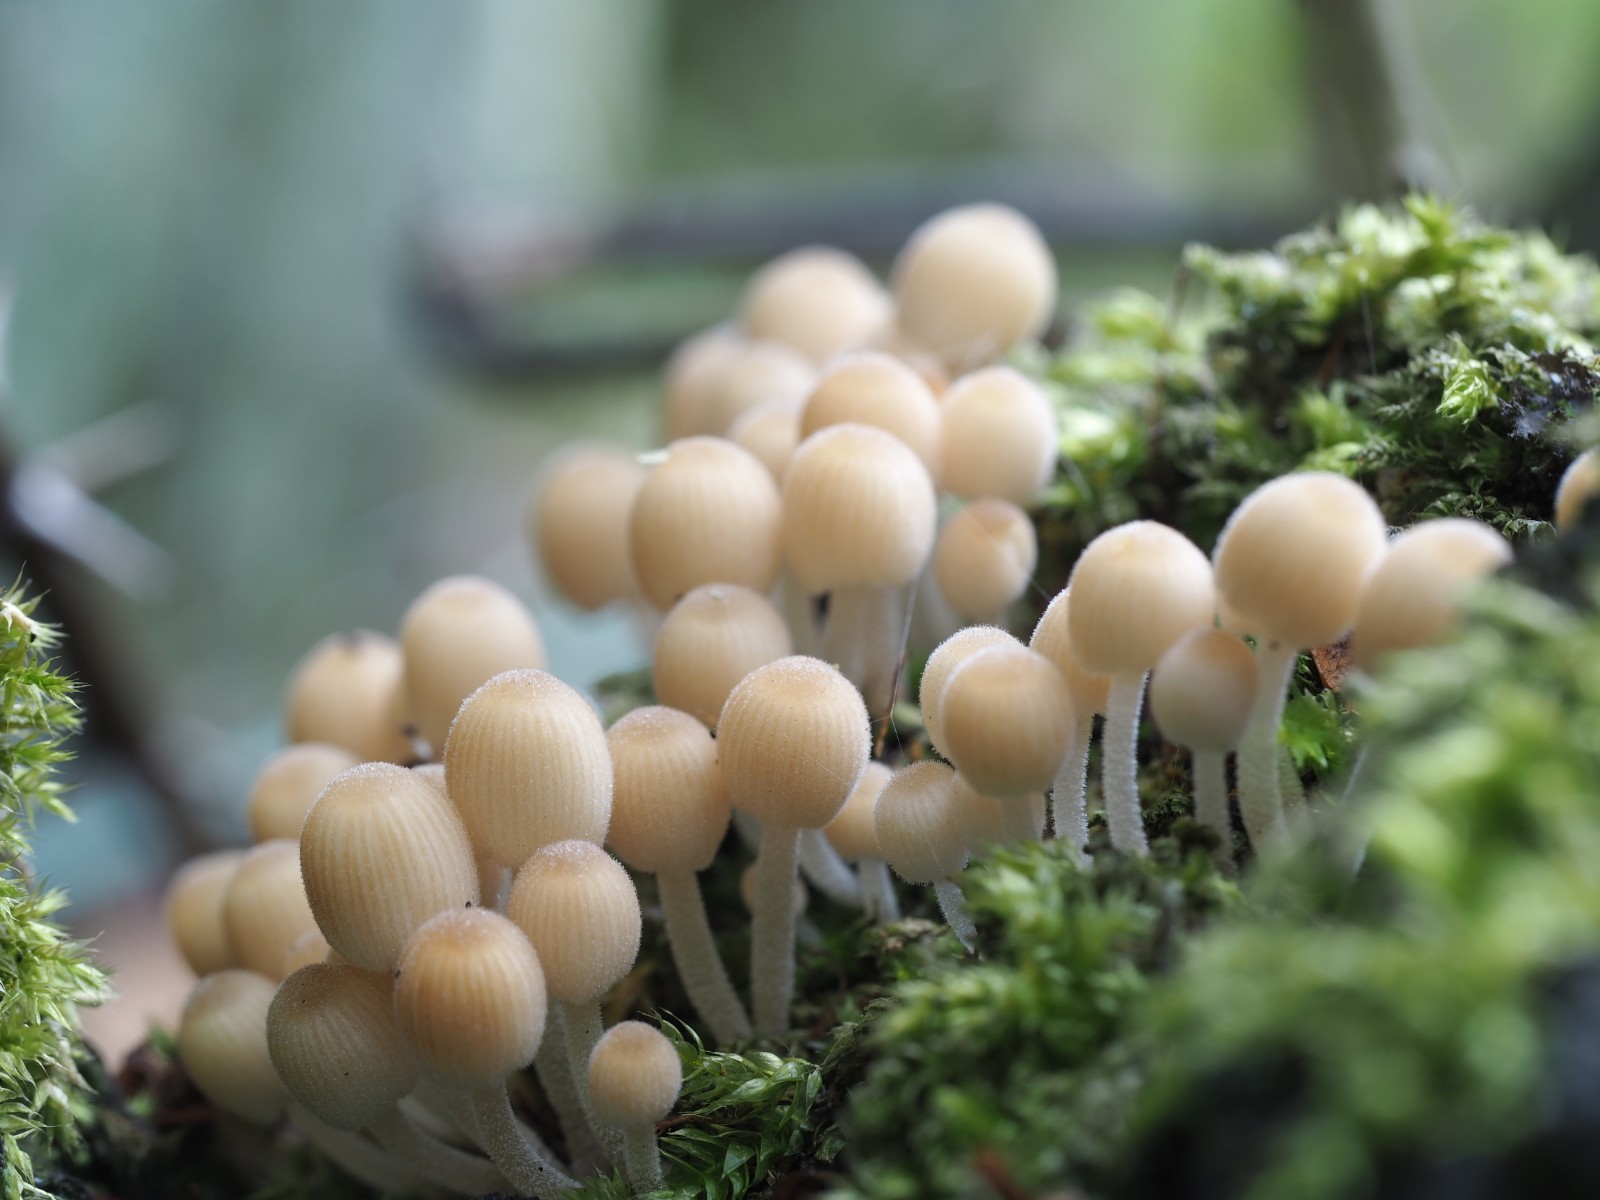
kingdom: Fungi
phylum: Basidiomycota
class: Agaricomycetes
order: Agaricales
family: Psathyrellaceae
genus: Coprinellus
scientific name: Coprinellus disseminatus
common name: bredsået blækhat
